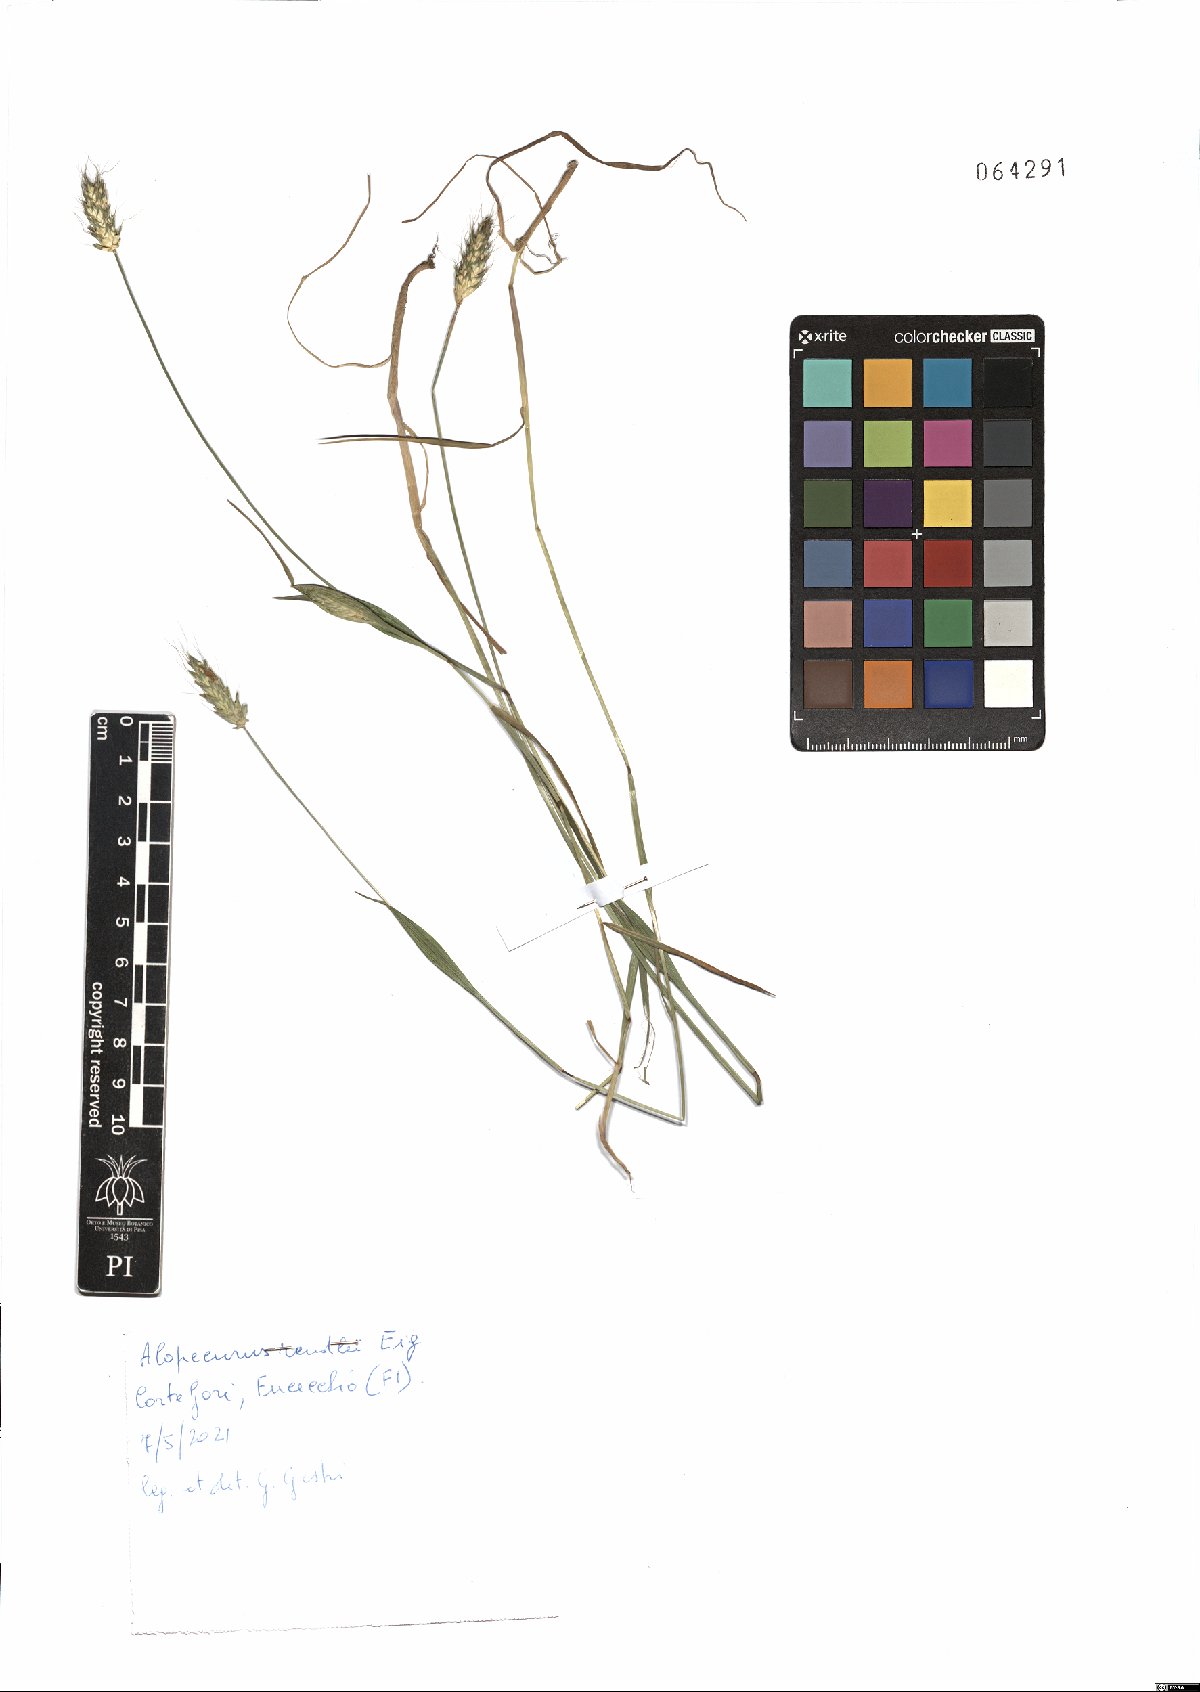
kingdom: Plantae
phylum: Tracheophyta
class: Liliopsida
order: Poales
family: Poaceae
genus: Alopecurus
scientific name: Alopecurus rendlei
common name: Rendle's meadow foxtail
